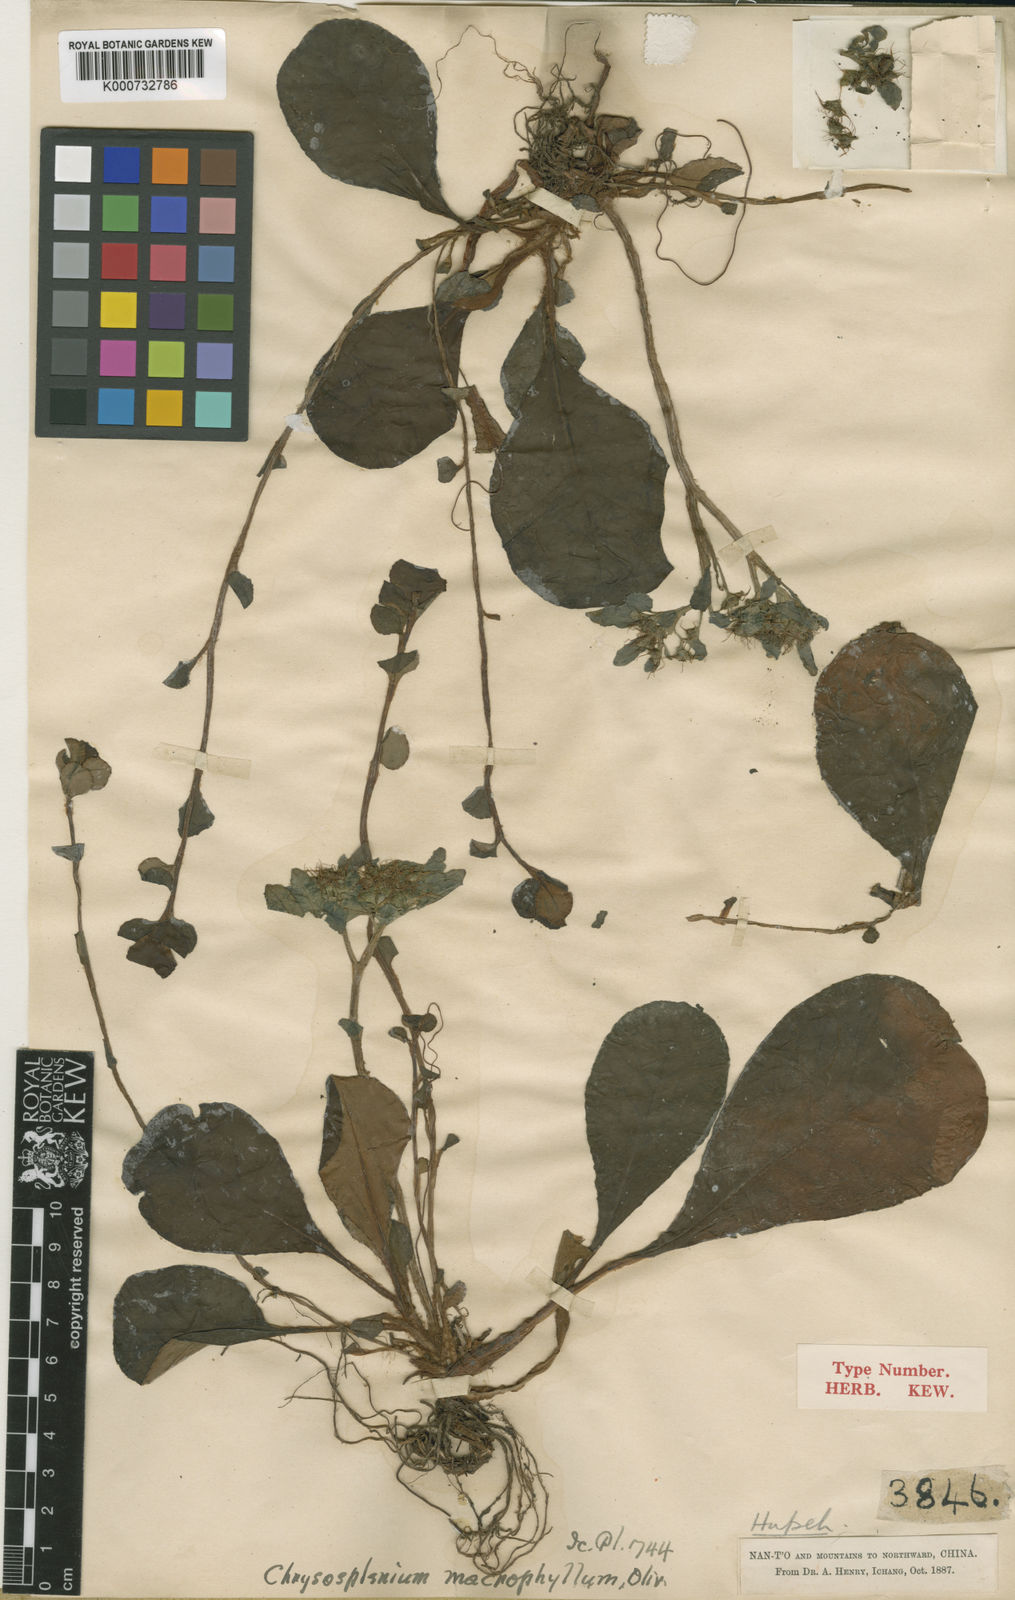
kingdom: Plantae
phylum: Tracheophyta
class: Magnoliopsida
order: Saxifragales
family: Saxifragaceae
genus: Chrysosplenium
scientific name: Chrysosplenium macrophyllum
